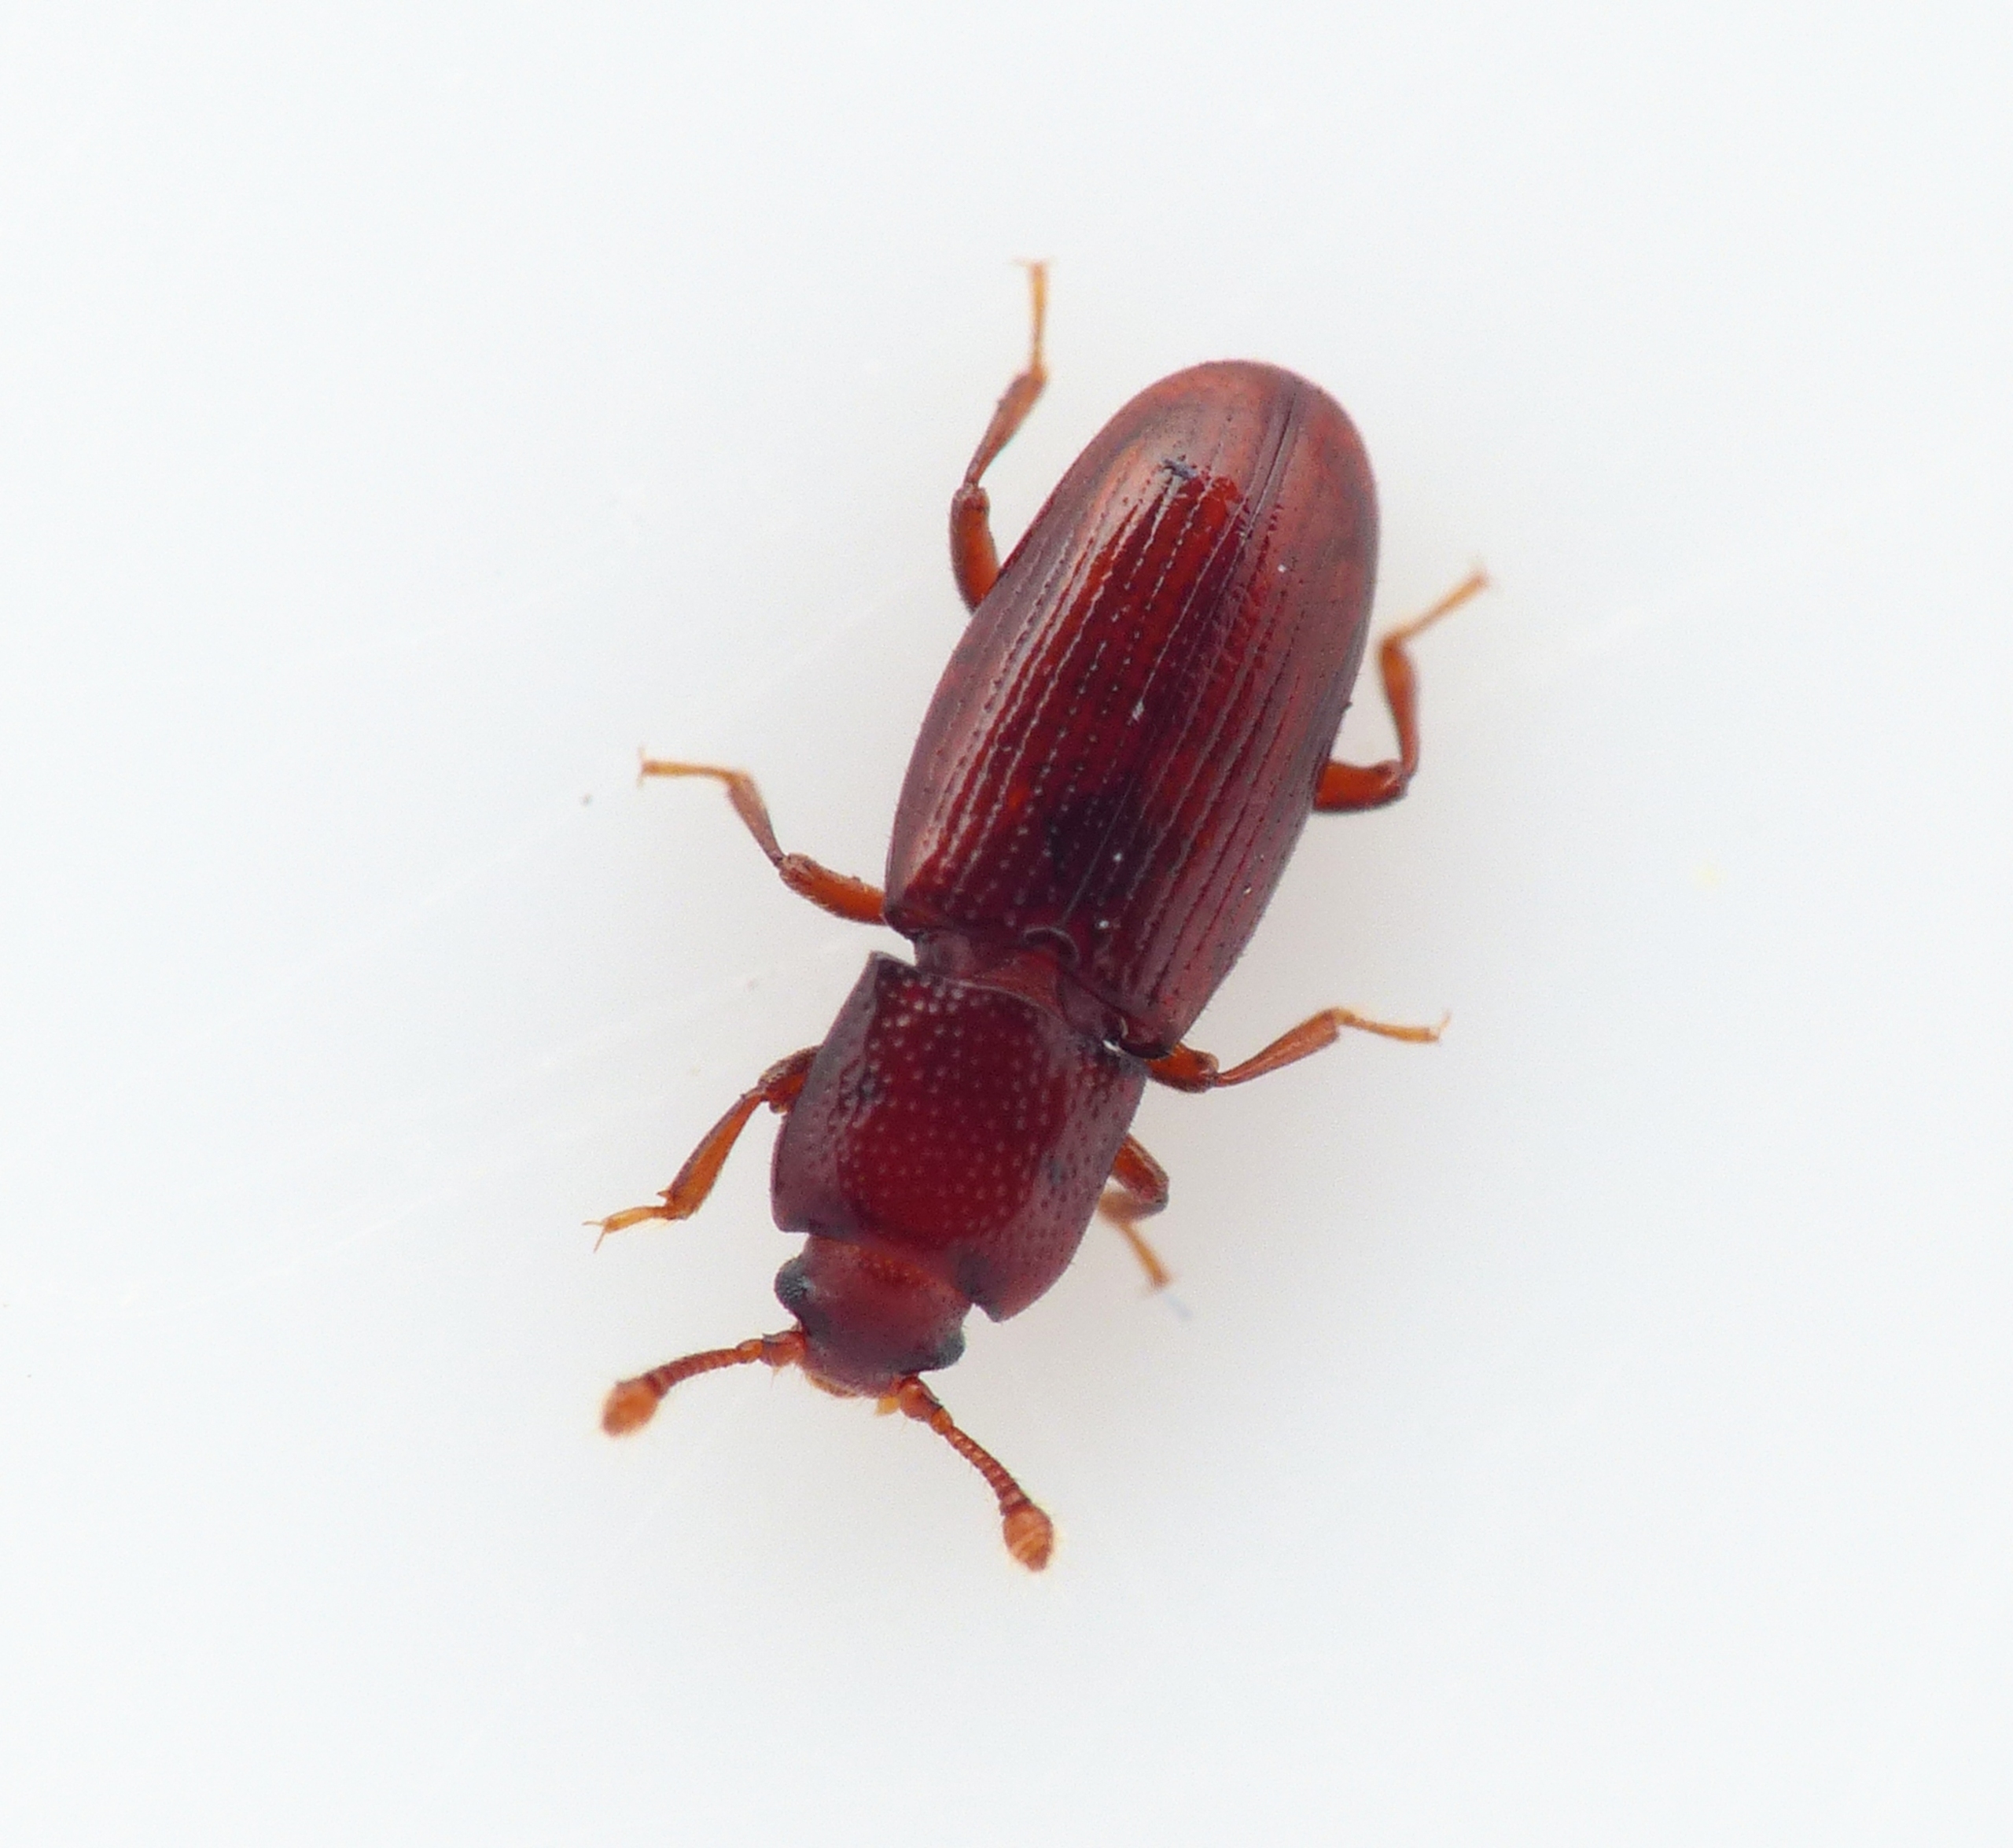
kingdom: Animalia
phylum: Arthropoda
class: Insecta
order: Coleoptera
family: Cerylonidae
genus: Cerylon
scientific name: Cerylon ferrugineum
